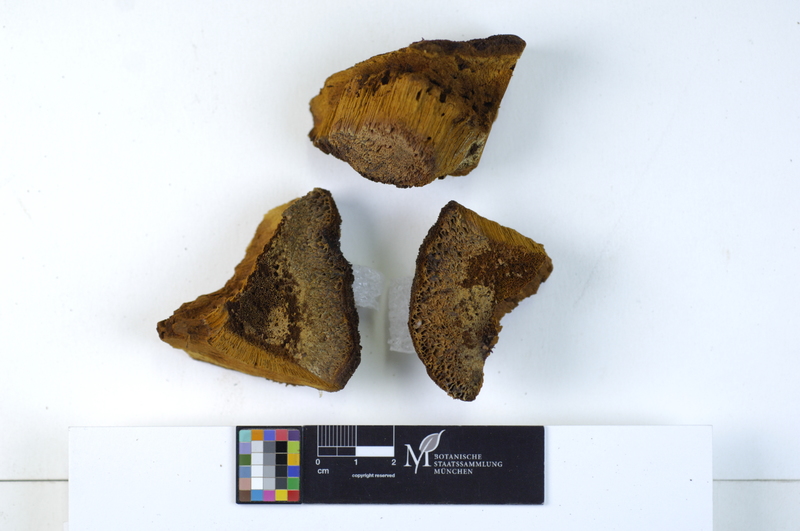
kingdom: Fungi
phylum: Basidiomycota
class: Agaricomycetes
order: Hymenochaetales
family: Hymenochaetaceae
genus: Inonotus
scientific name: Inonotus hispidus
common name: Shaggy bracket
